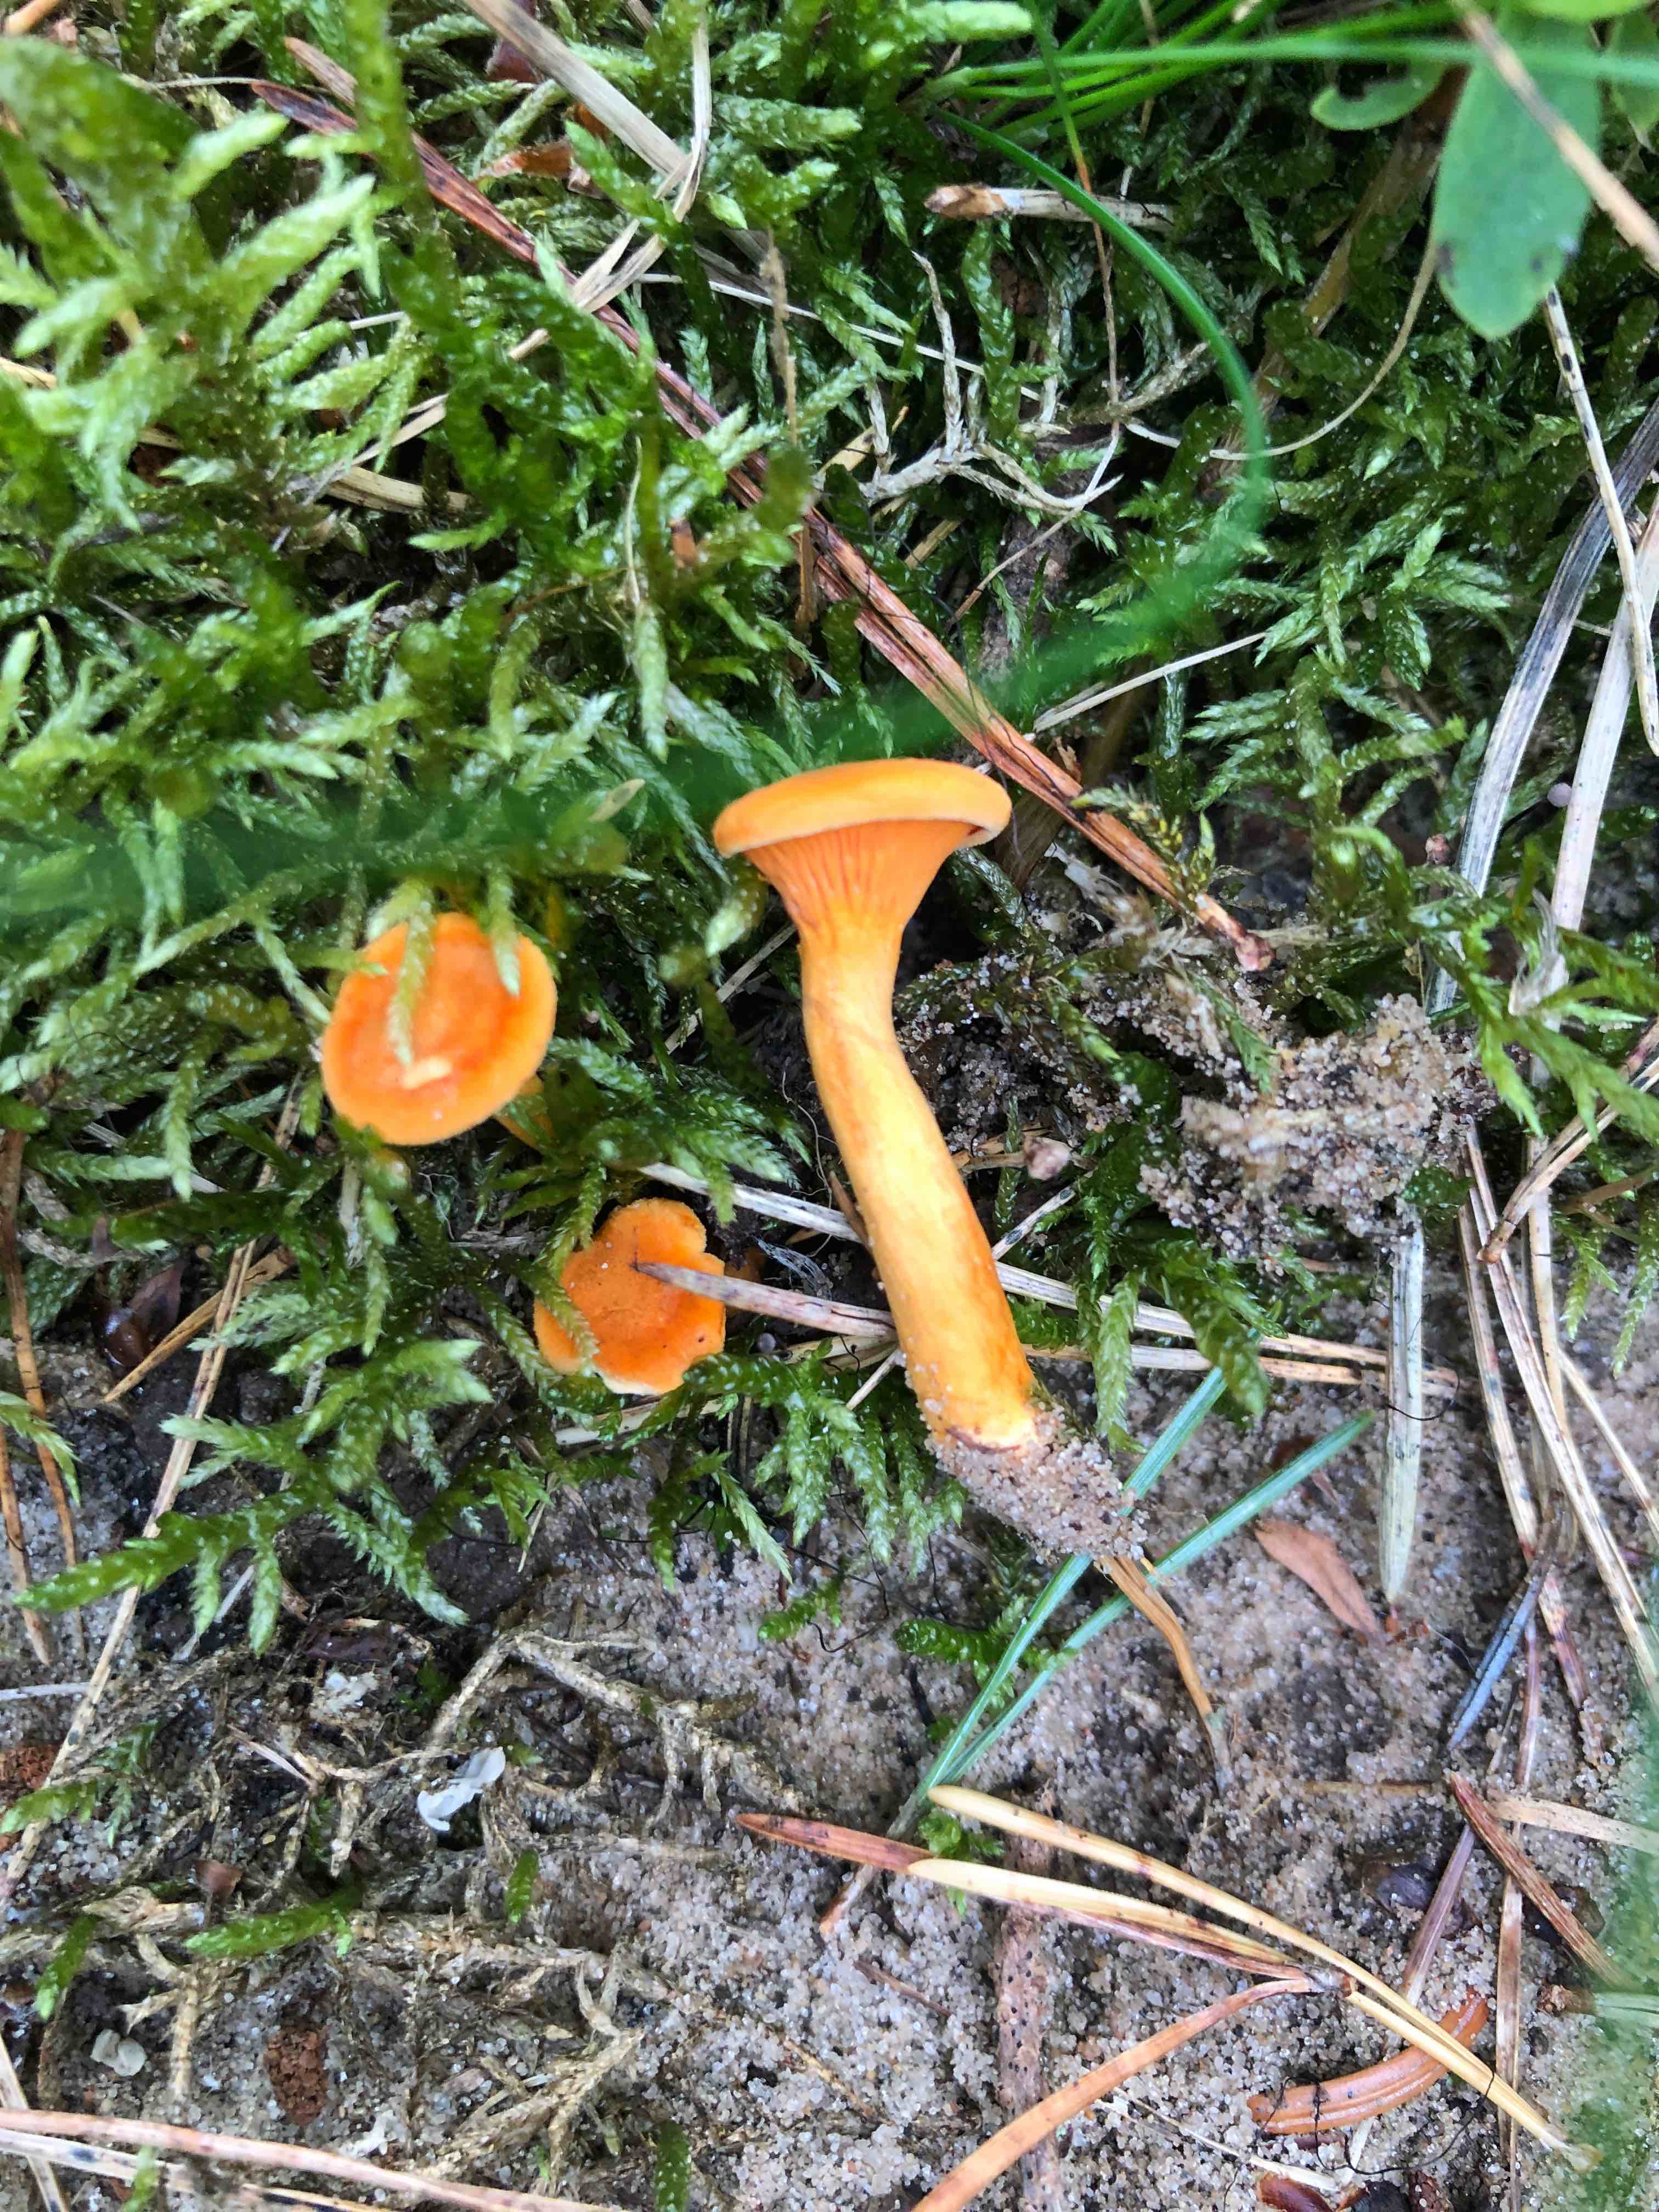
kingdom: Fungi
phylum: Basidiomycota
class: Agaricomycetes
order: Boletales
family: Hygrophoropsidaceae
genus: Hygrophoropsis
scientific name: Hygrophoropsis aurantiaca
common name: almindelig orangekantarel
